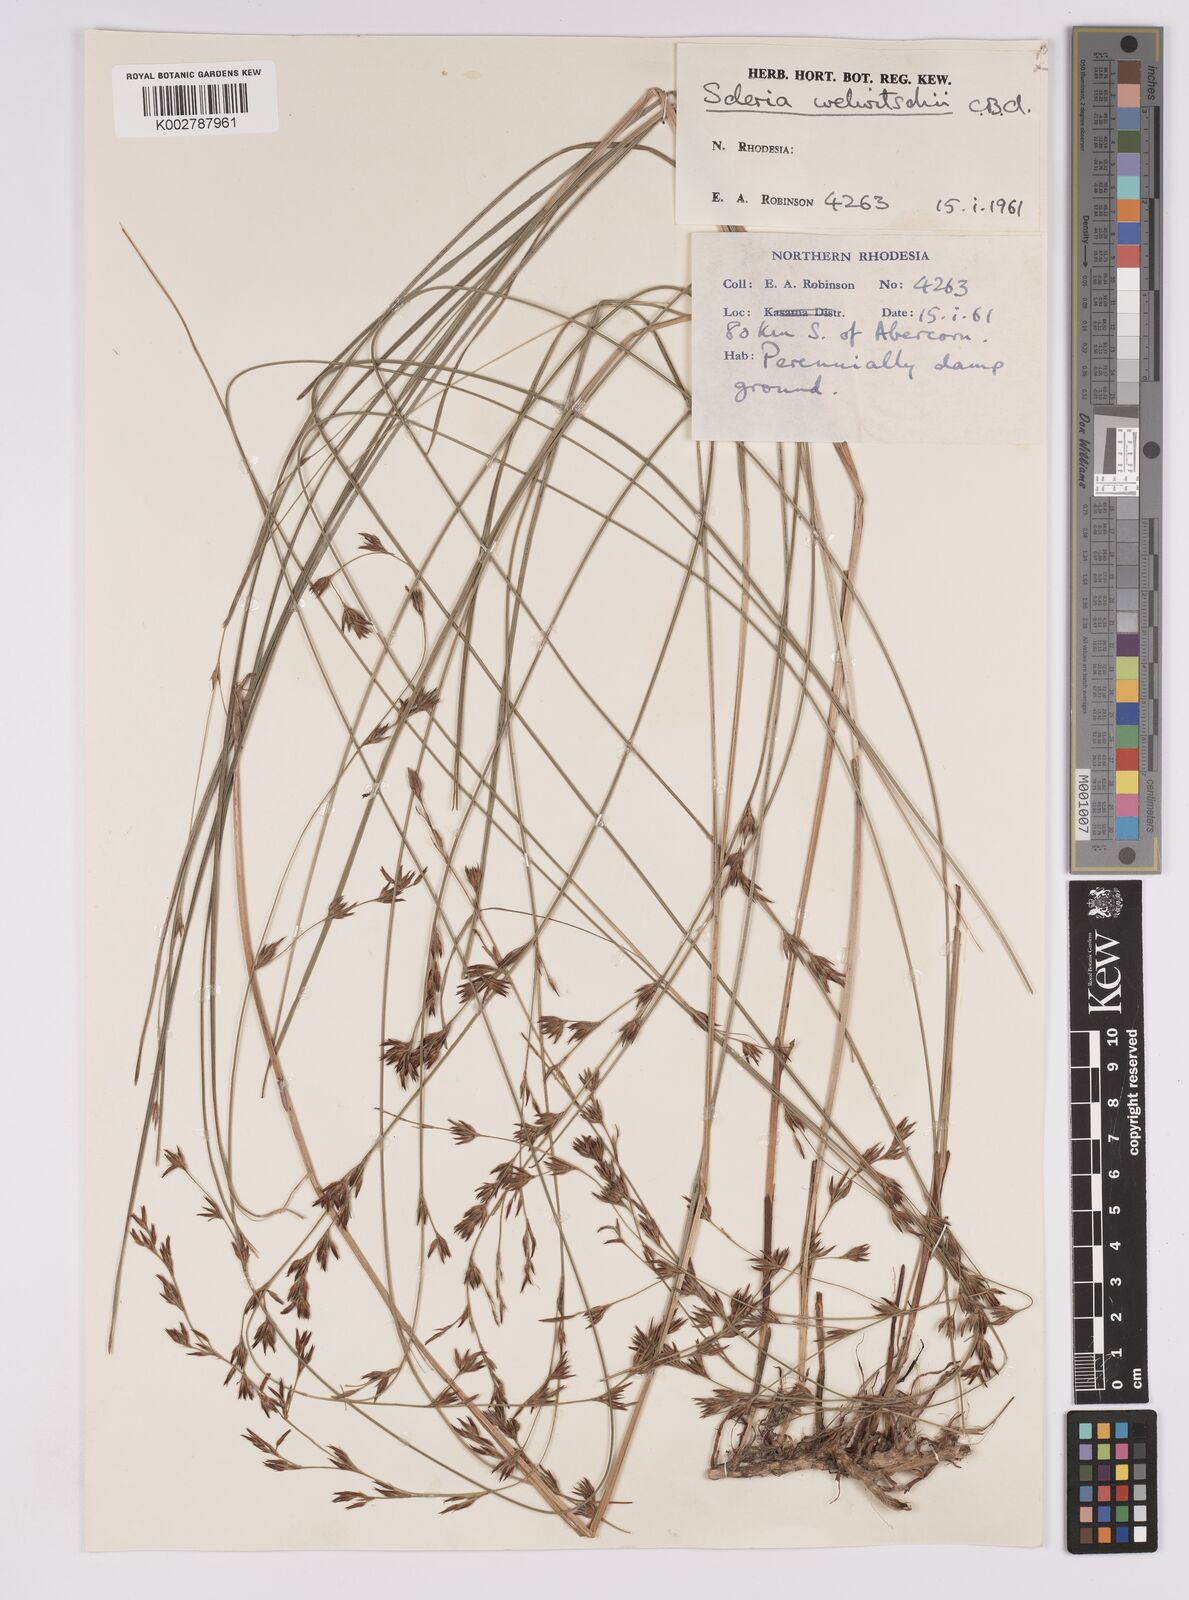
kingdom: Plantae
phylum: Tracheophyta
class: Liliopsida
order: Poales
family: Cyperaceae
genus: Scleria
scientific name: Scleria welwitschii
